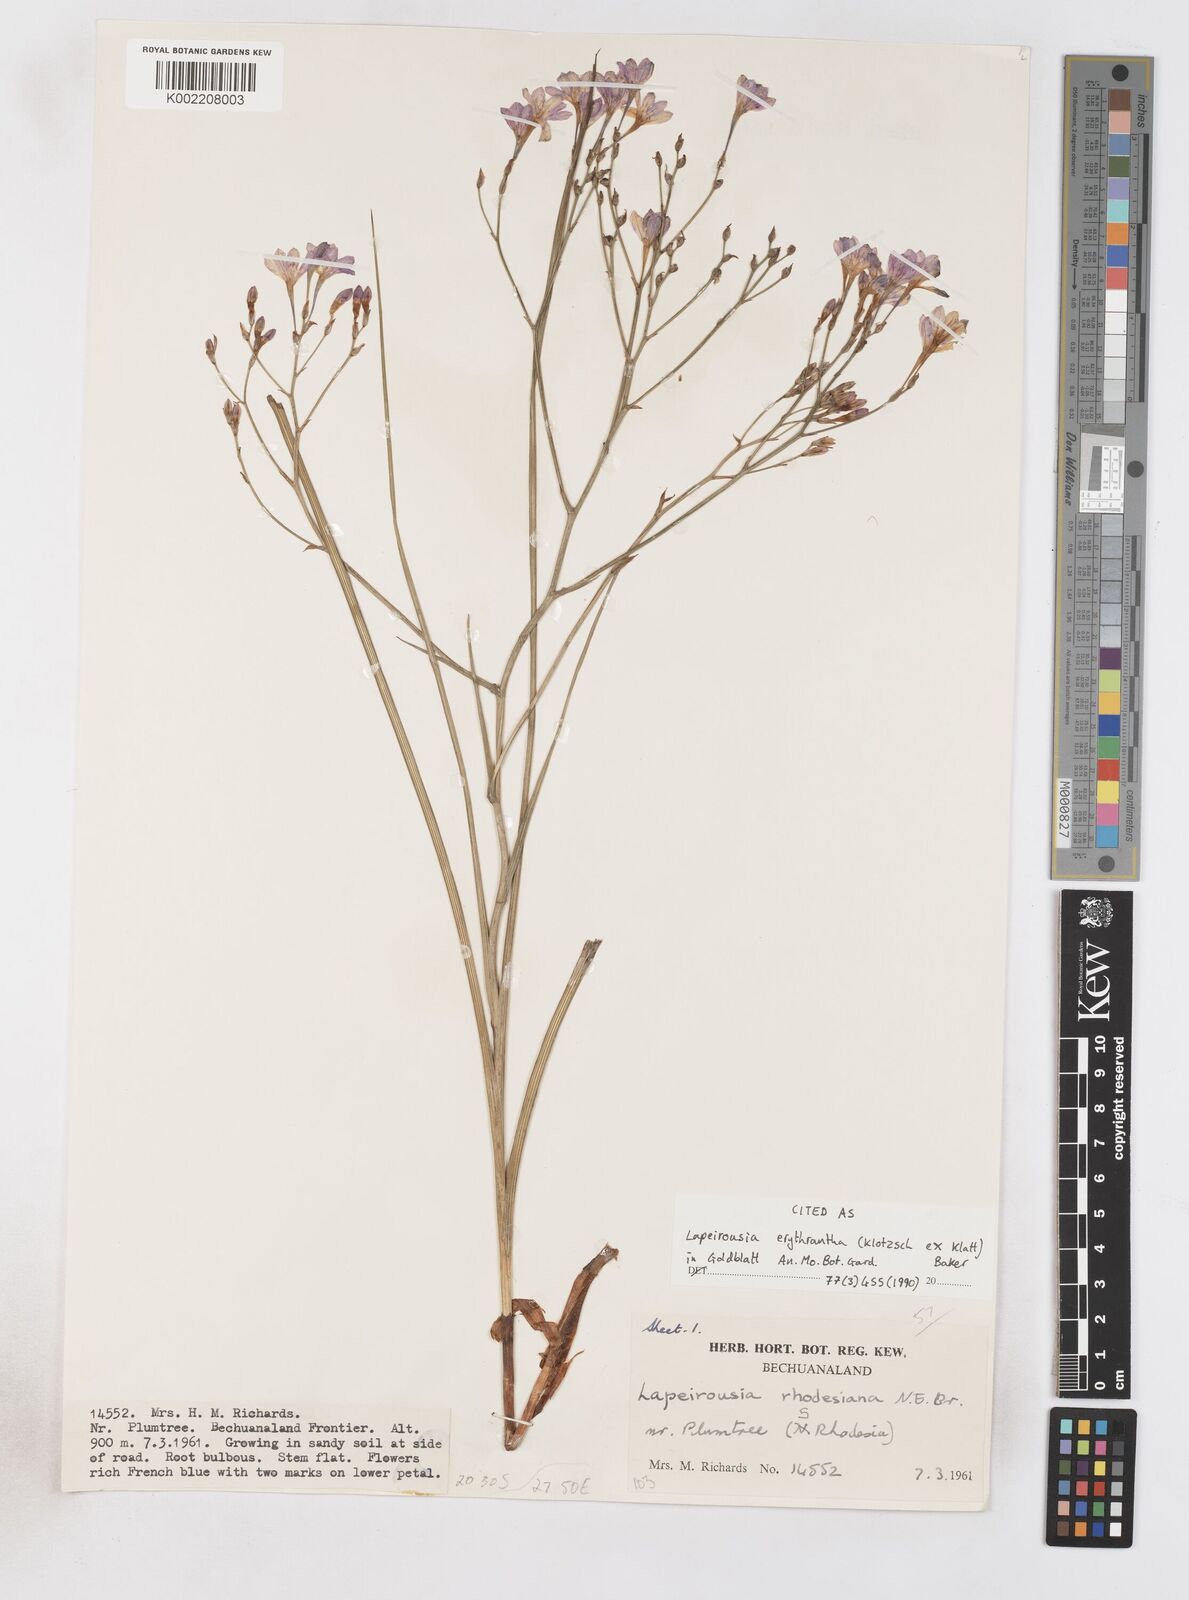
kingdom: Plantae
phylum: Tracheophyta
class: Liliopsida
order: Asparagales
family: Iridaceae
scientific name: Iridaceae
